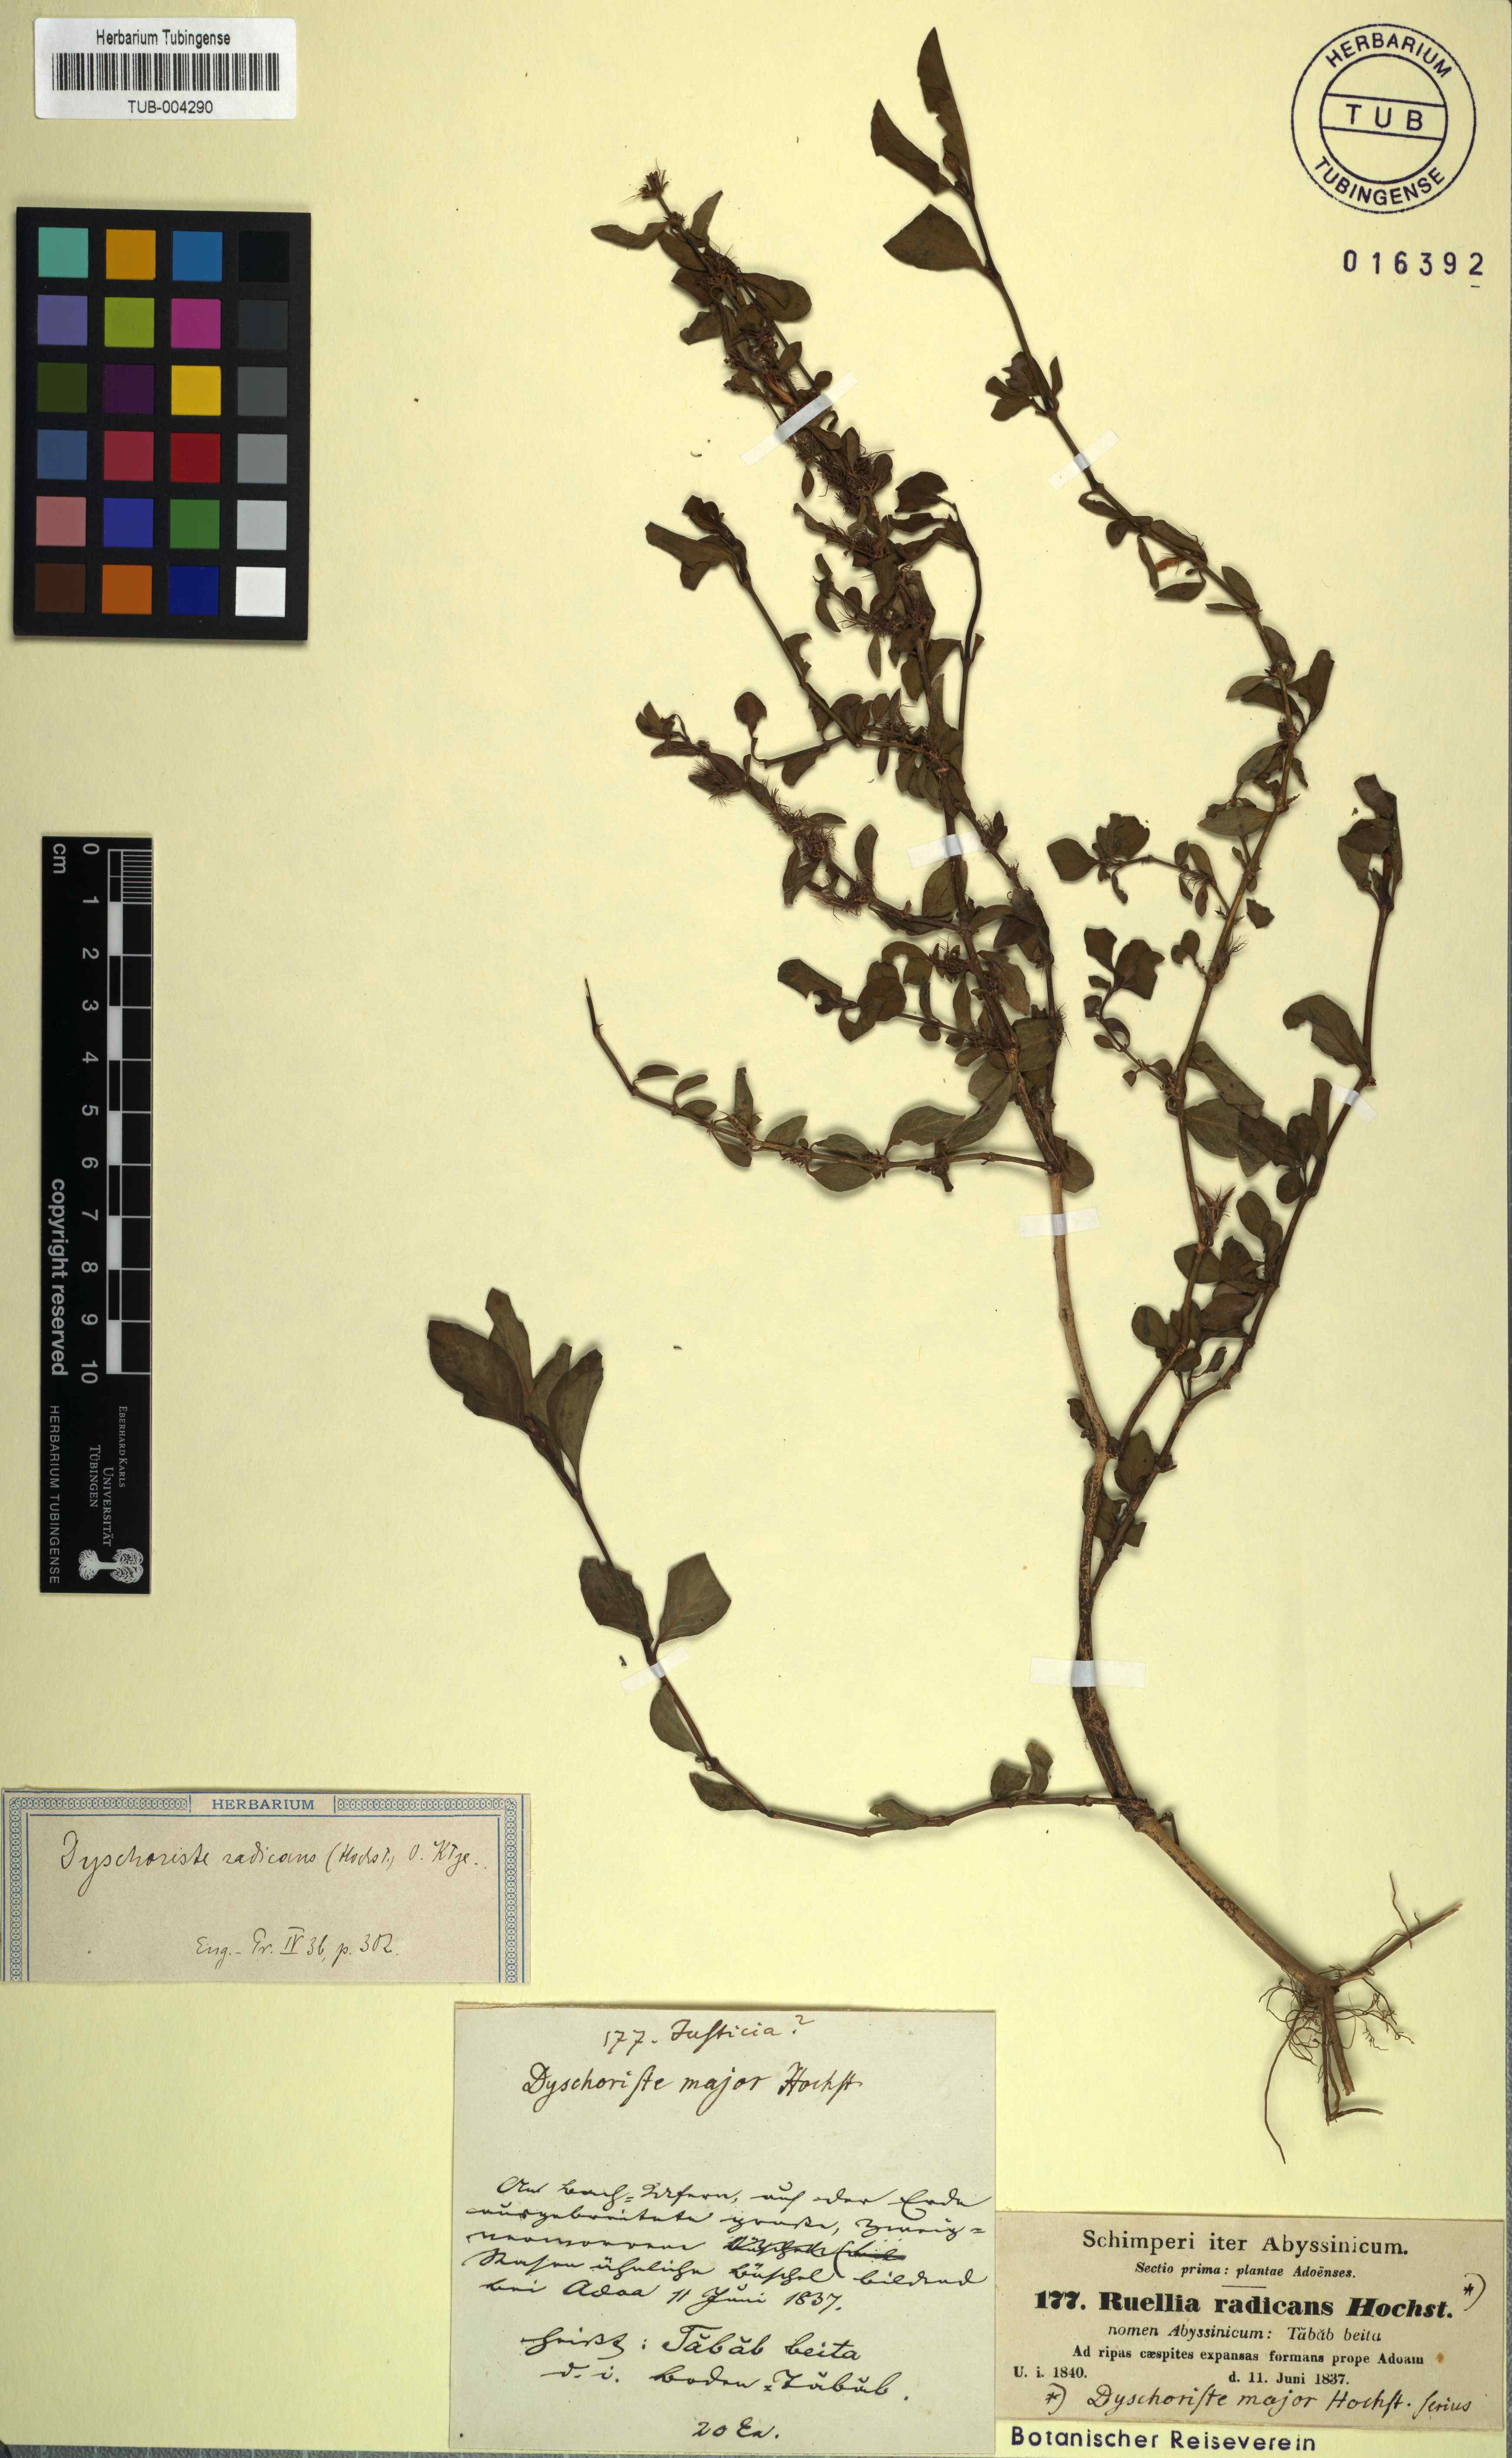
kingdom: Plantae
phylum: Tracheophyta
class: Magnoliopsida
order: Lamiales
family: Acanthaceae
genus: Dyschoriste
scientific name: Dyschoriste radicans
